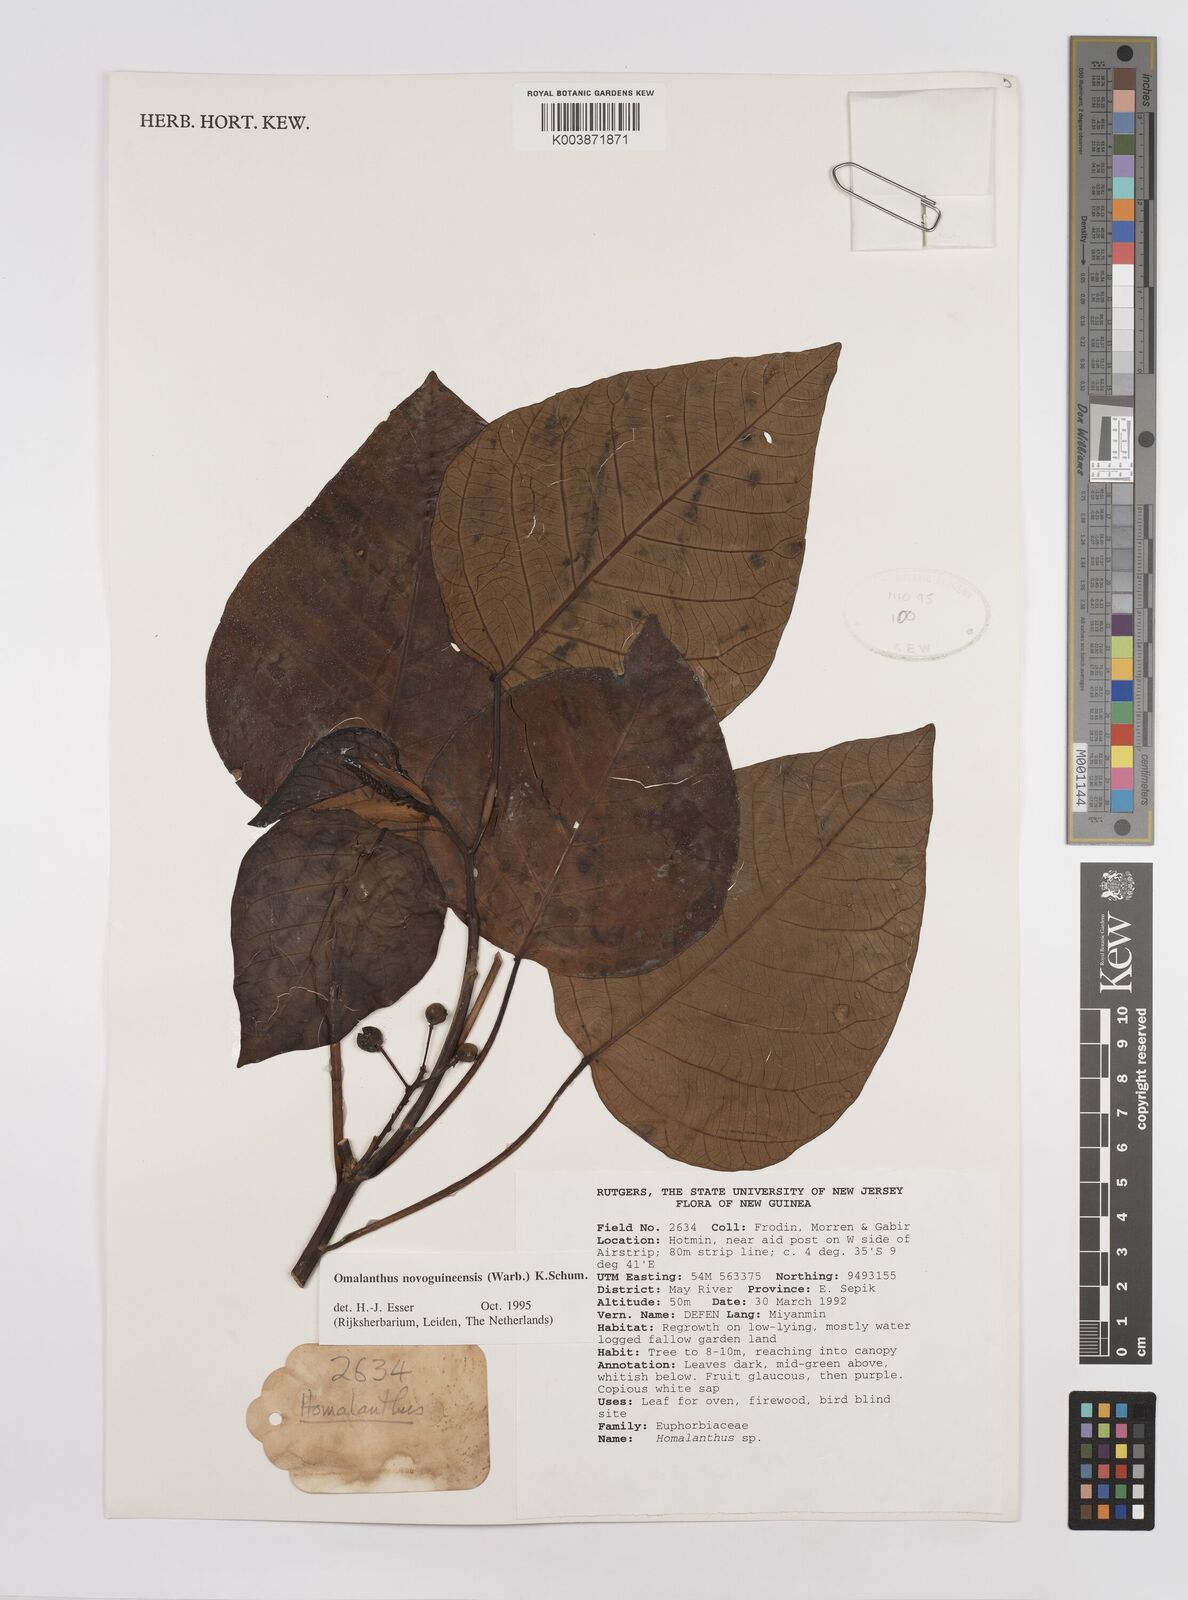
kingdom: Plantae
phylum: Tracheophyta
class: Magnoliopsida
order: Malpighiales
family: Euphorbiaceae
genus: Homalanthus
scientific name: Homalanthus novoguineensis
